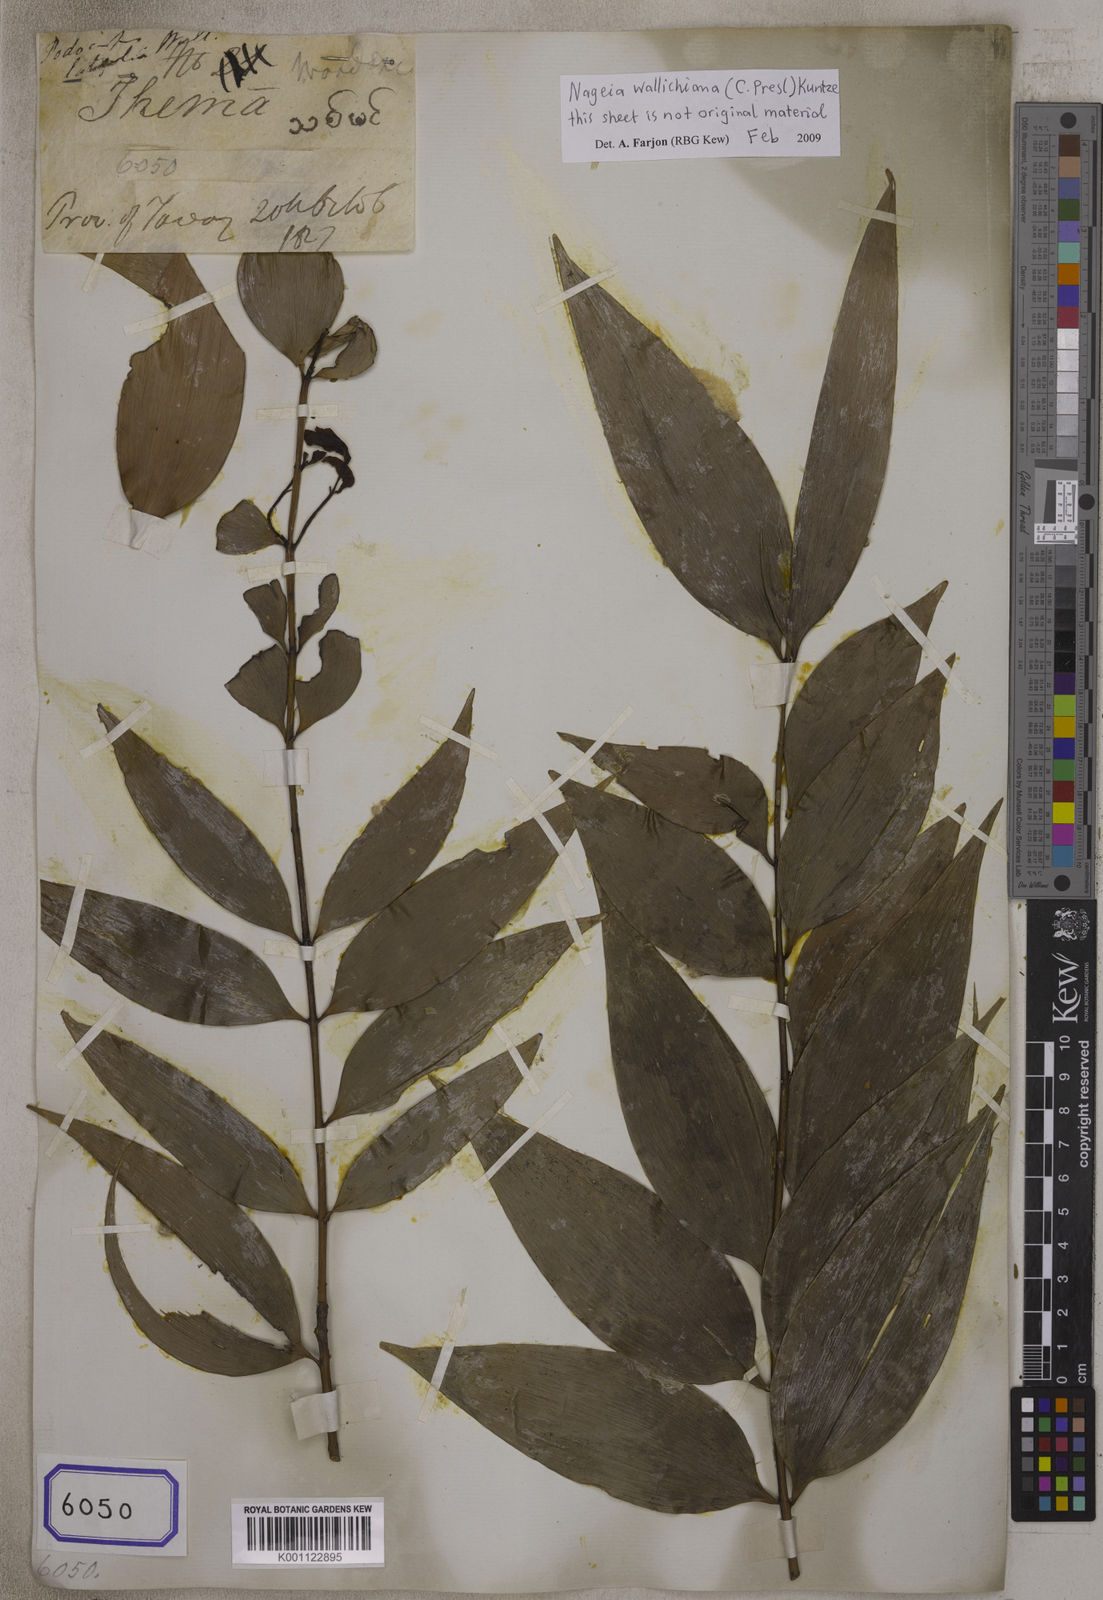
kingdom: Plantae
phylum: Tracheophyta
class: Pinopsida
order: Pinales
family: Podocarpaceae
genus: Nageia
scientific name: Nageia wallichiana
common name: Brown's-pine
